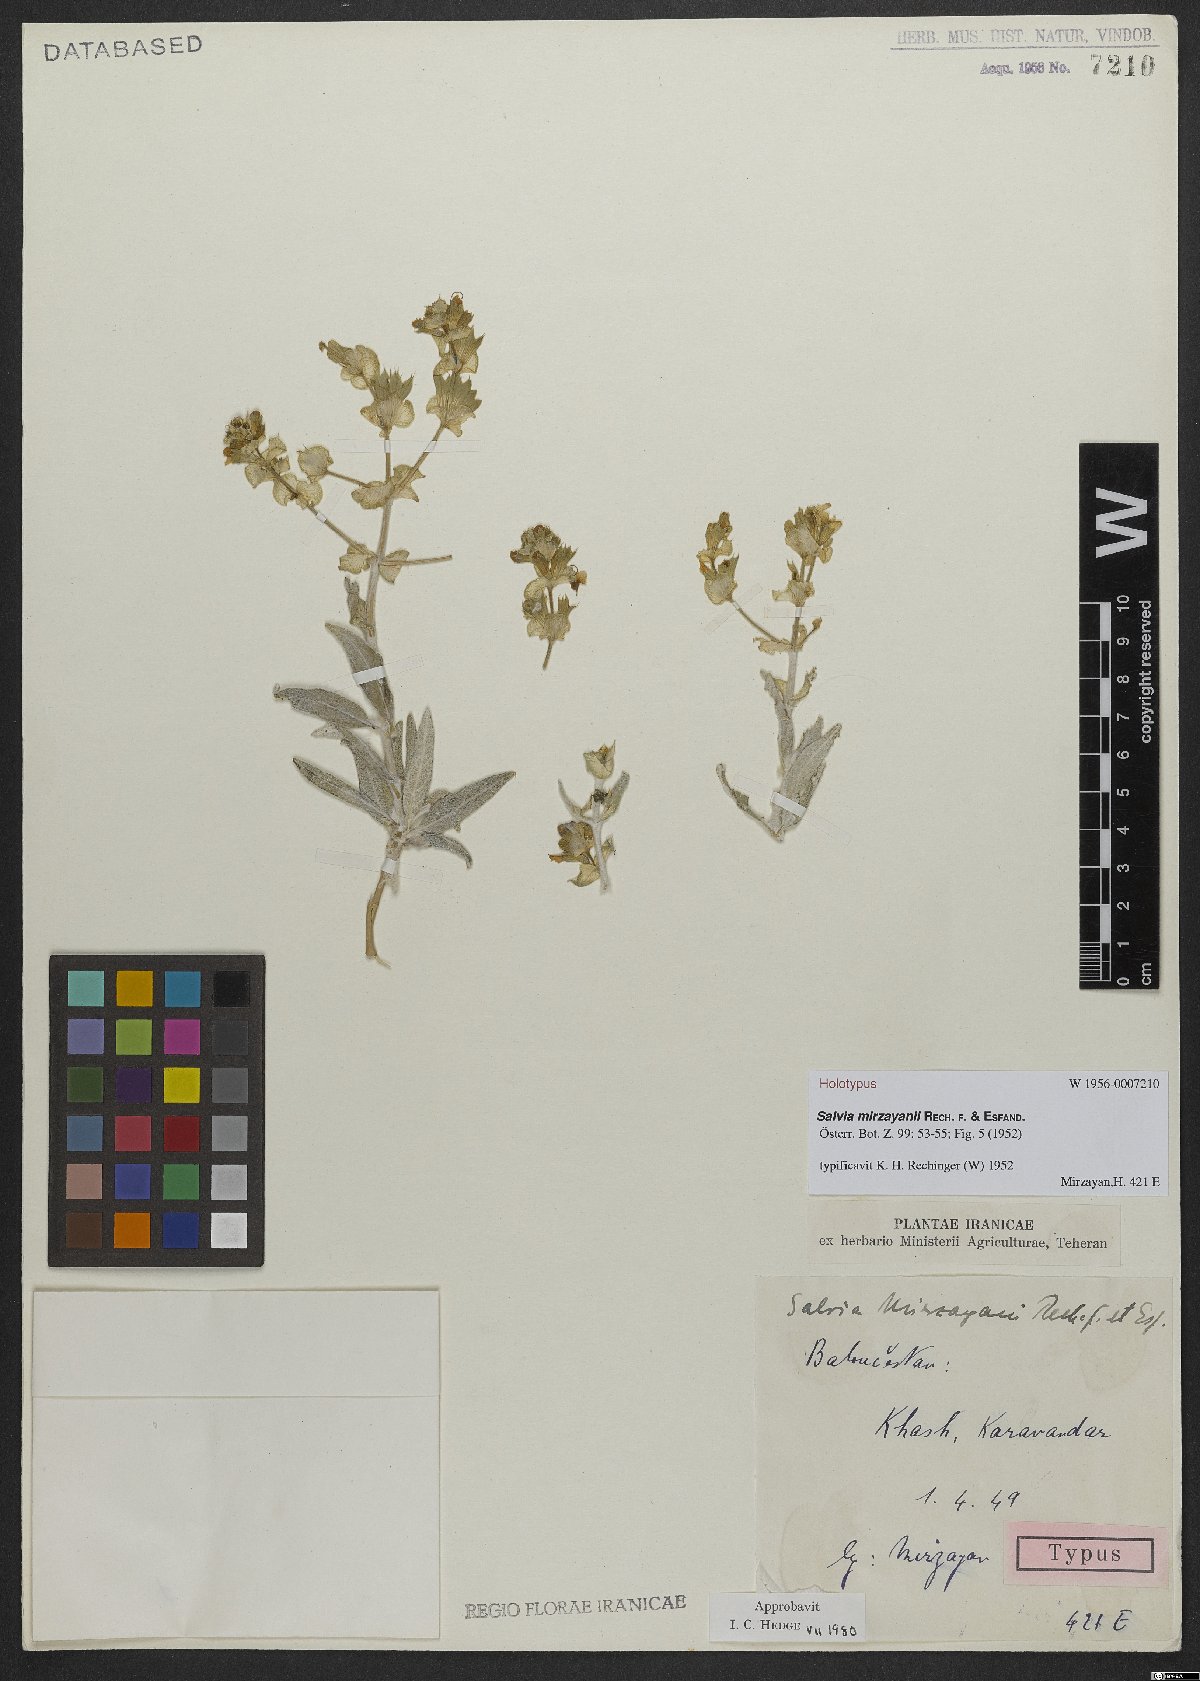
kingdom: Plantae
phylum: Tracheophyta
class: Magnoliopsida
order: Lamiales
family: Lamiaceae
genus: Salvia
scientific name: Salvia mirzayanii
